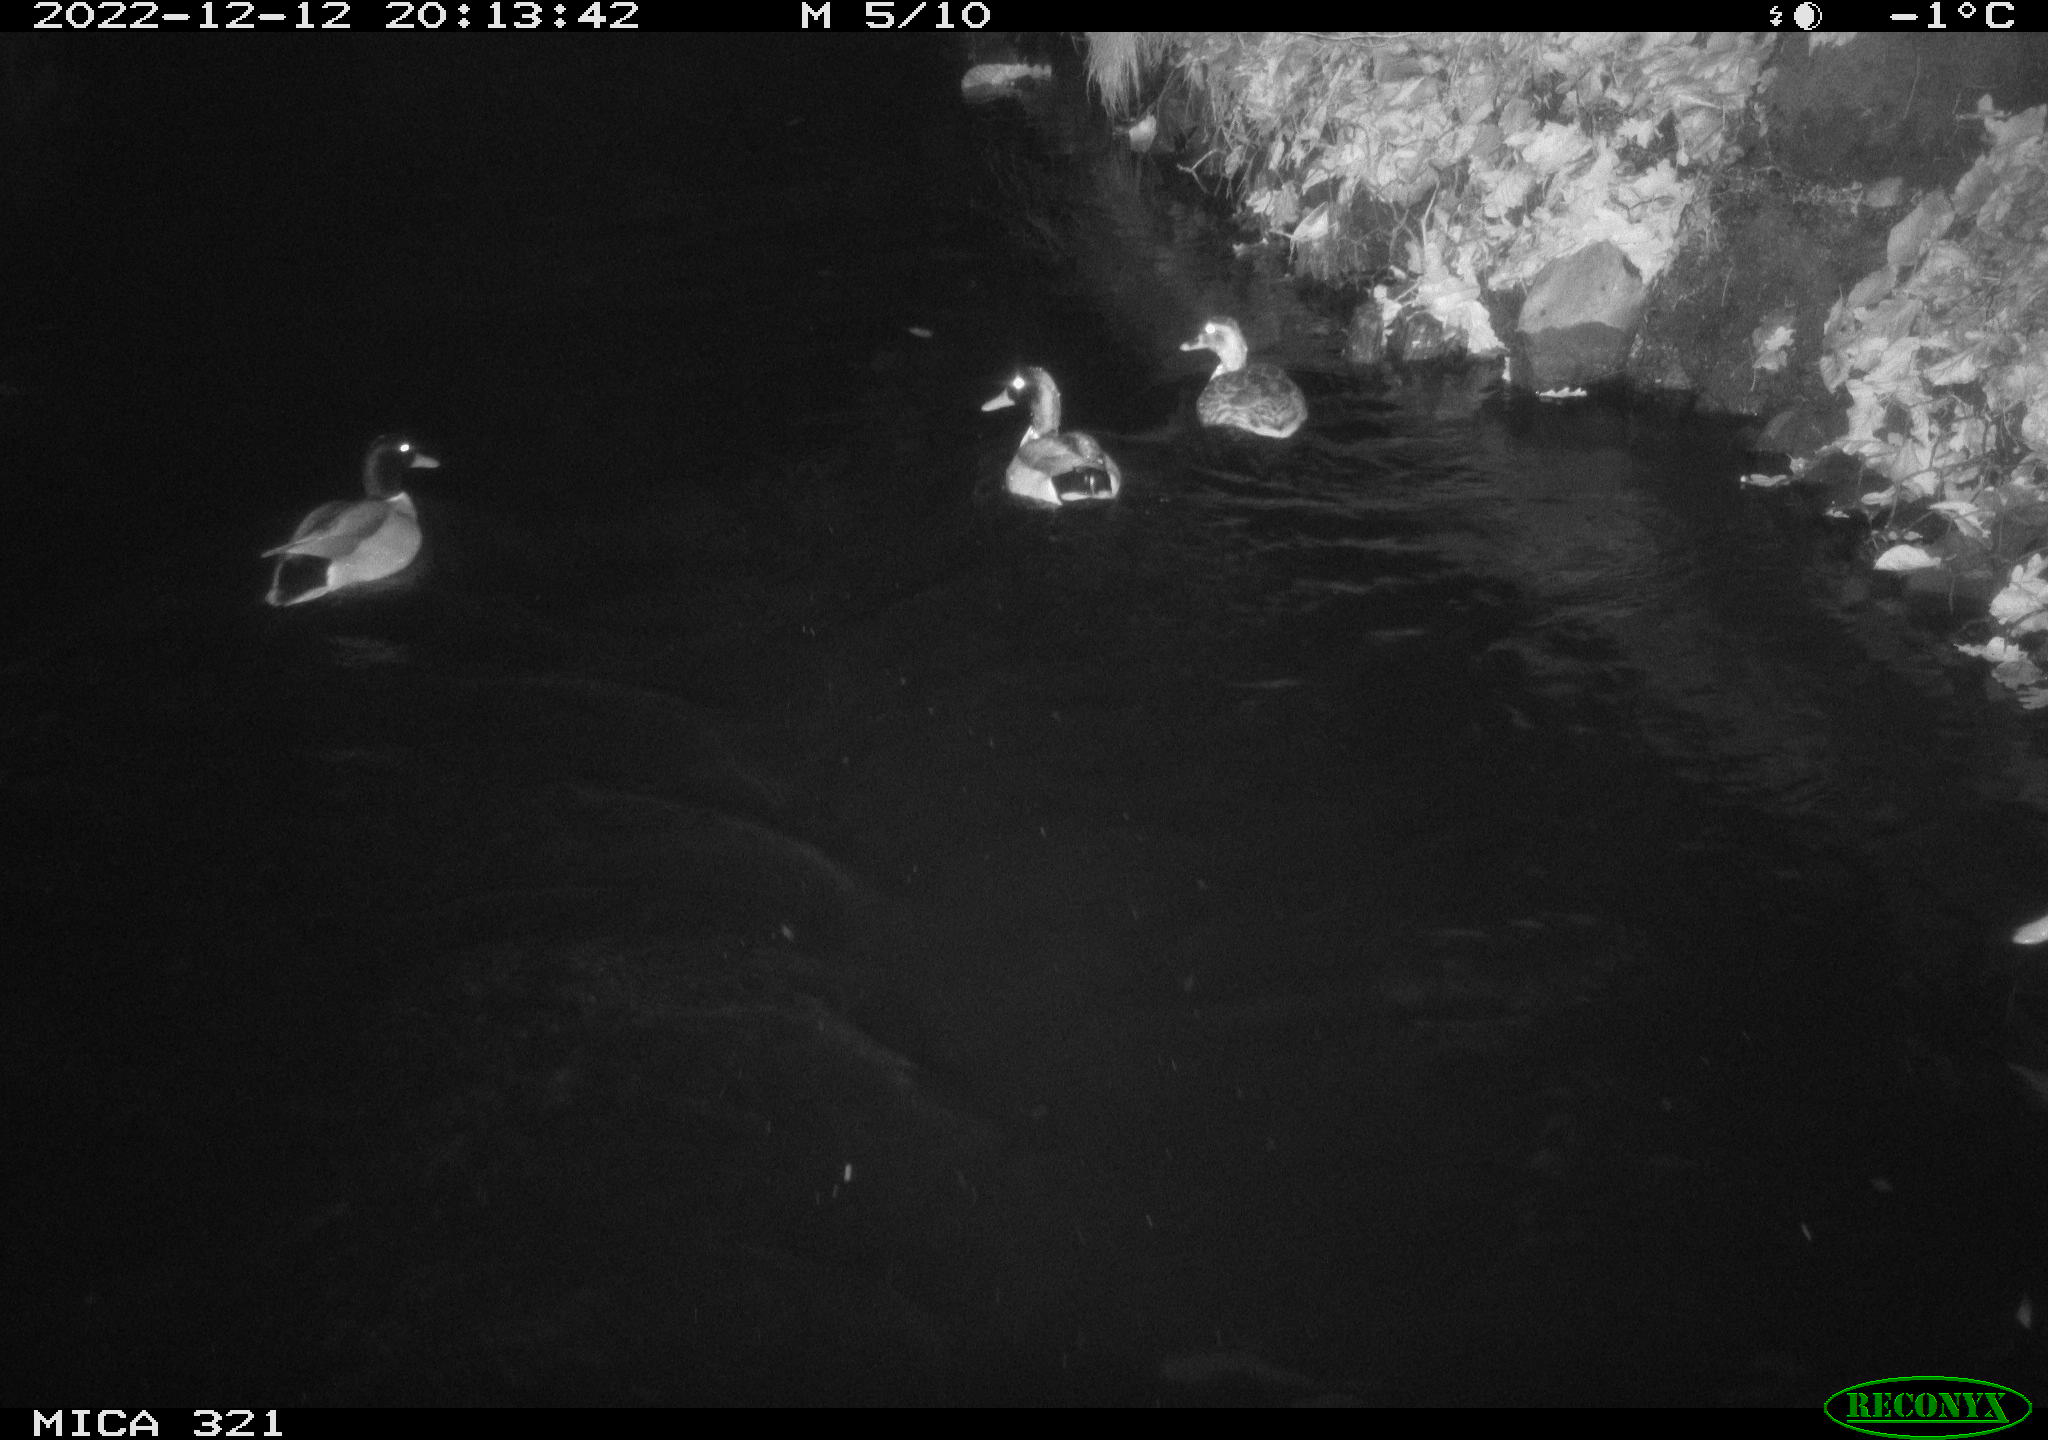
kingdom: Animalia
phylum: Chordata
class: Aves
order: Anseriformes
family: Anatidae
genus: Anas
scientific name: Anas
